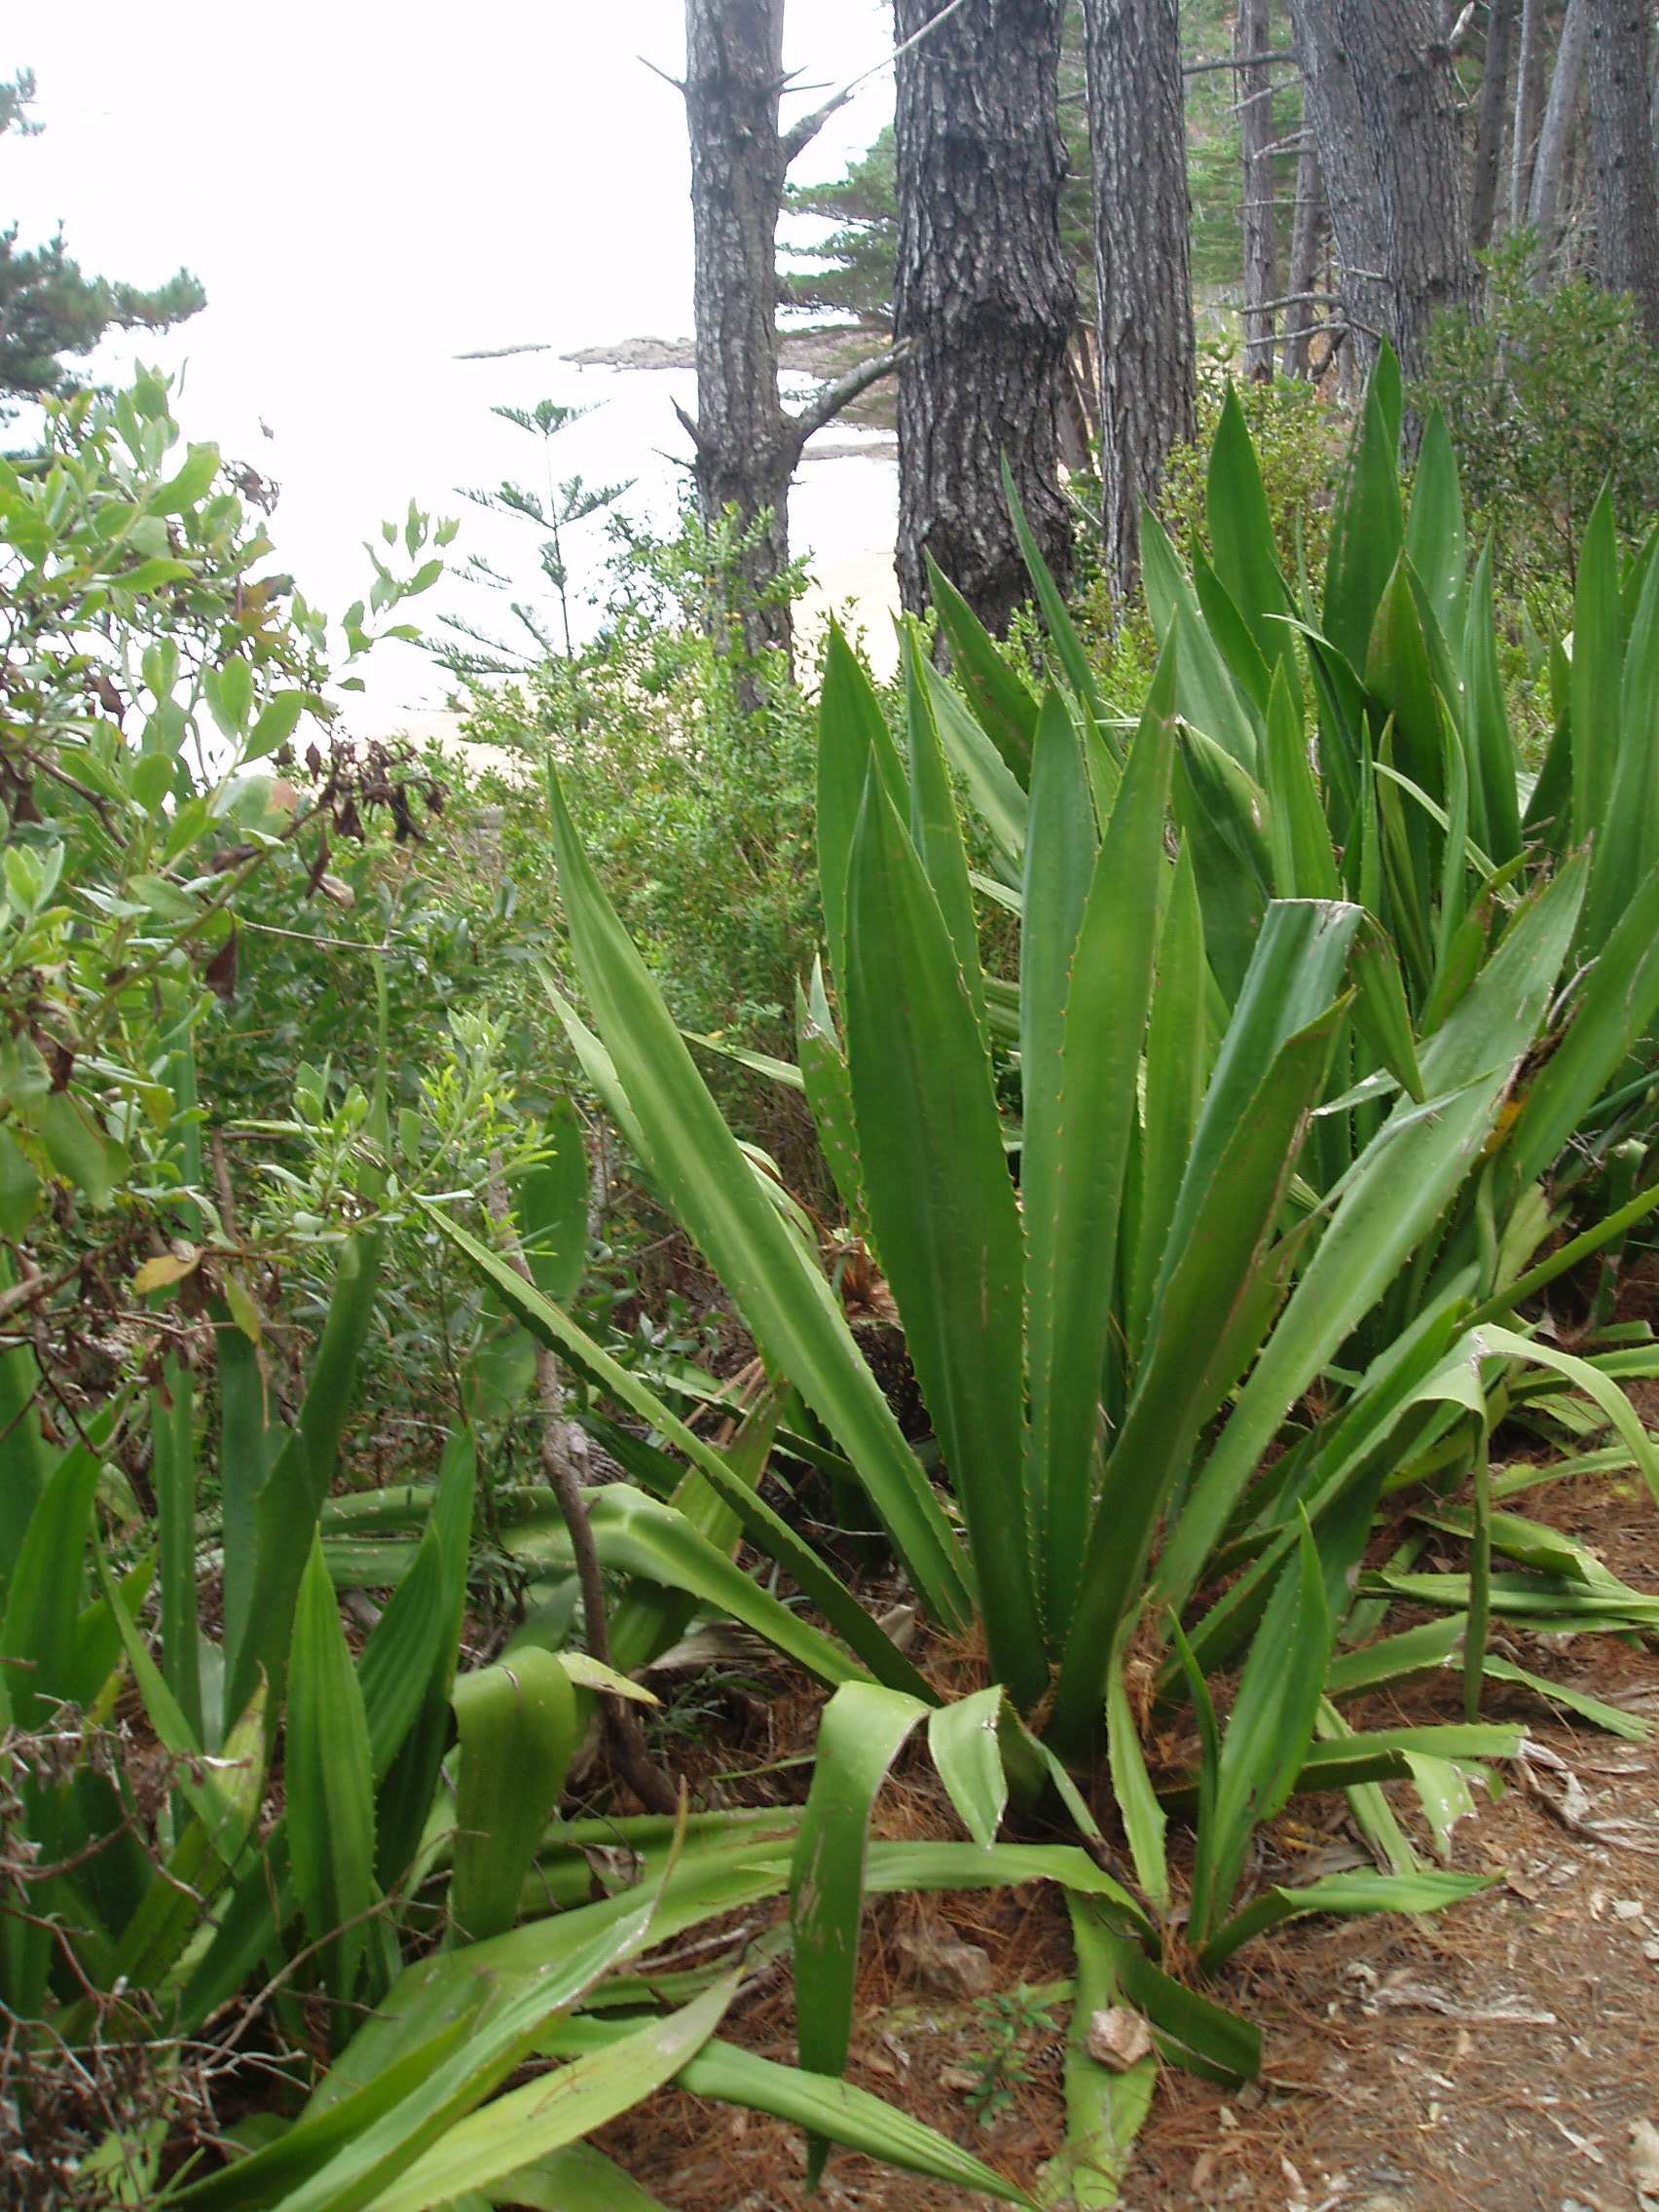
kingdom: Plantae
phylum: Tracheophyta
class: Liliopsida
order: Asparagales
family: Asparagaceae
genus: Furcraea
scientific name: Furcraea selloa
